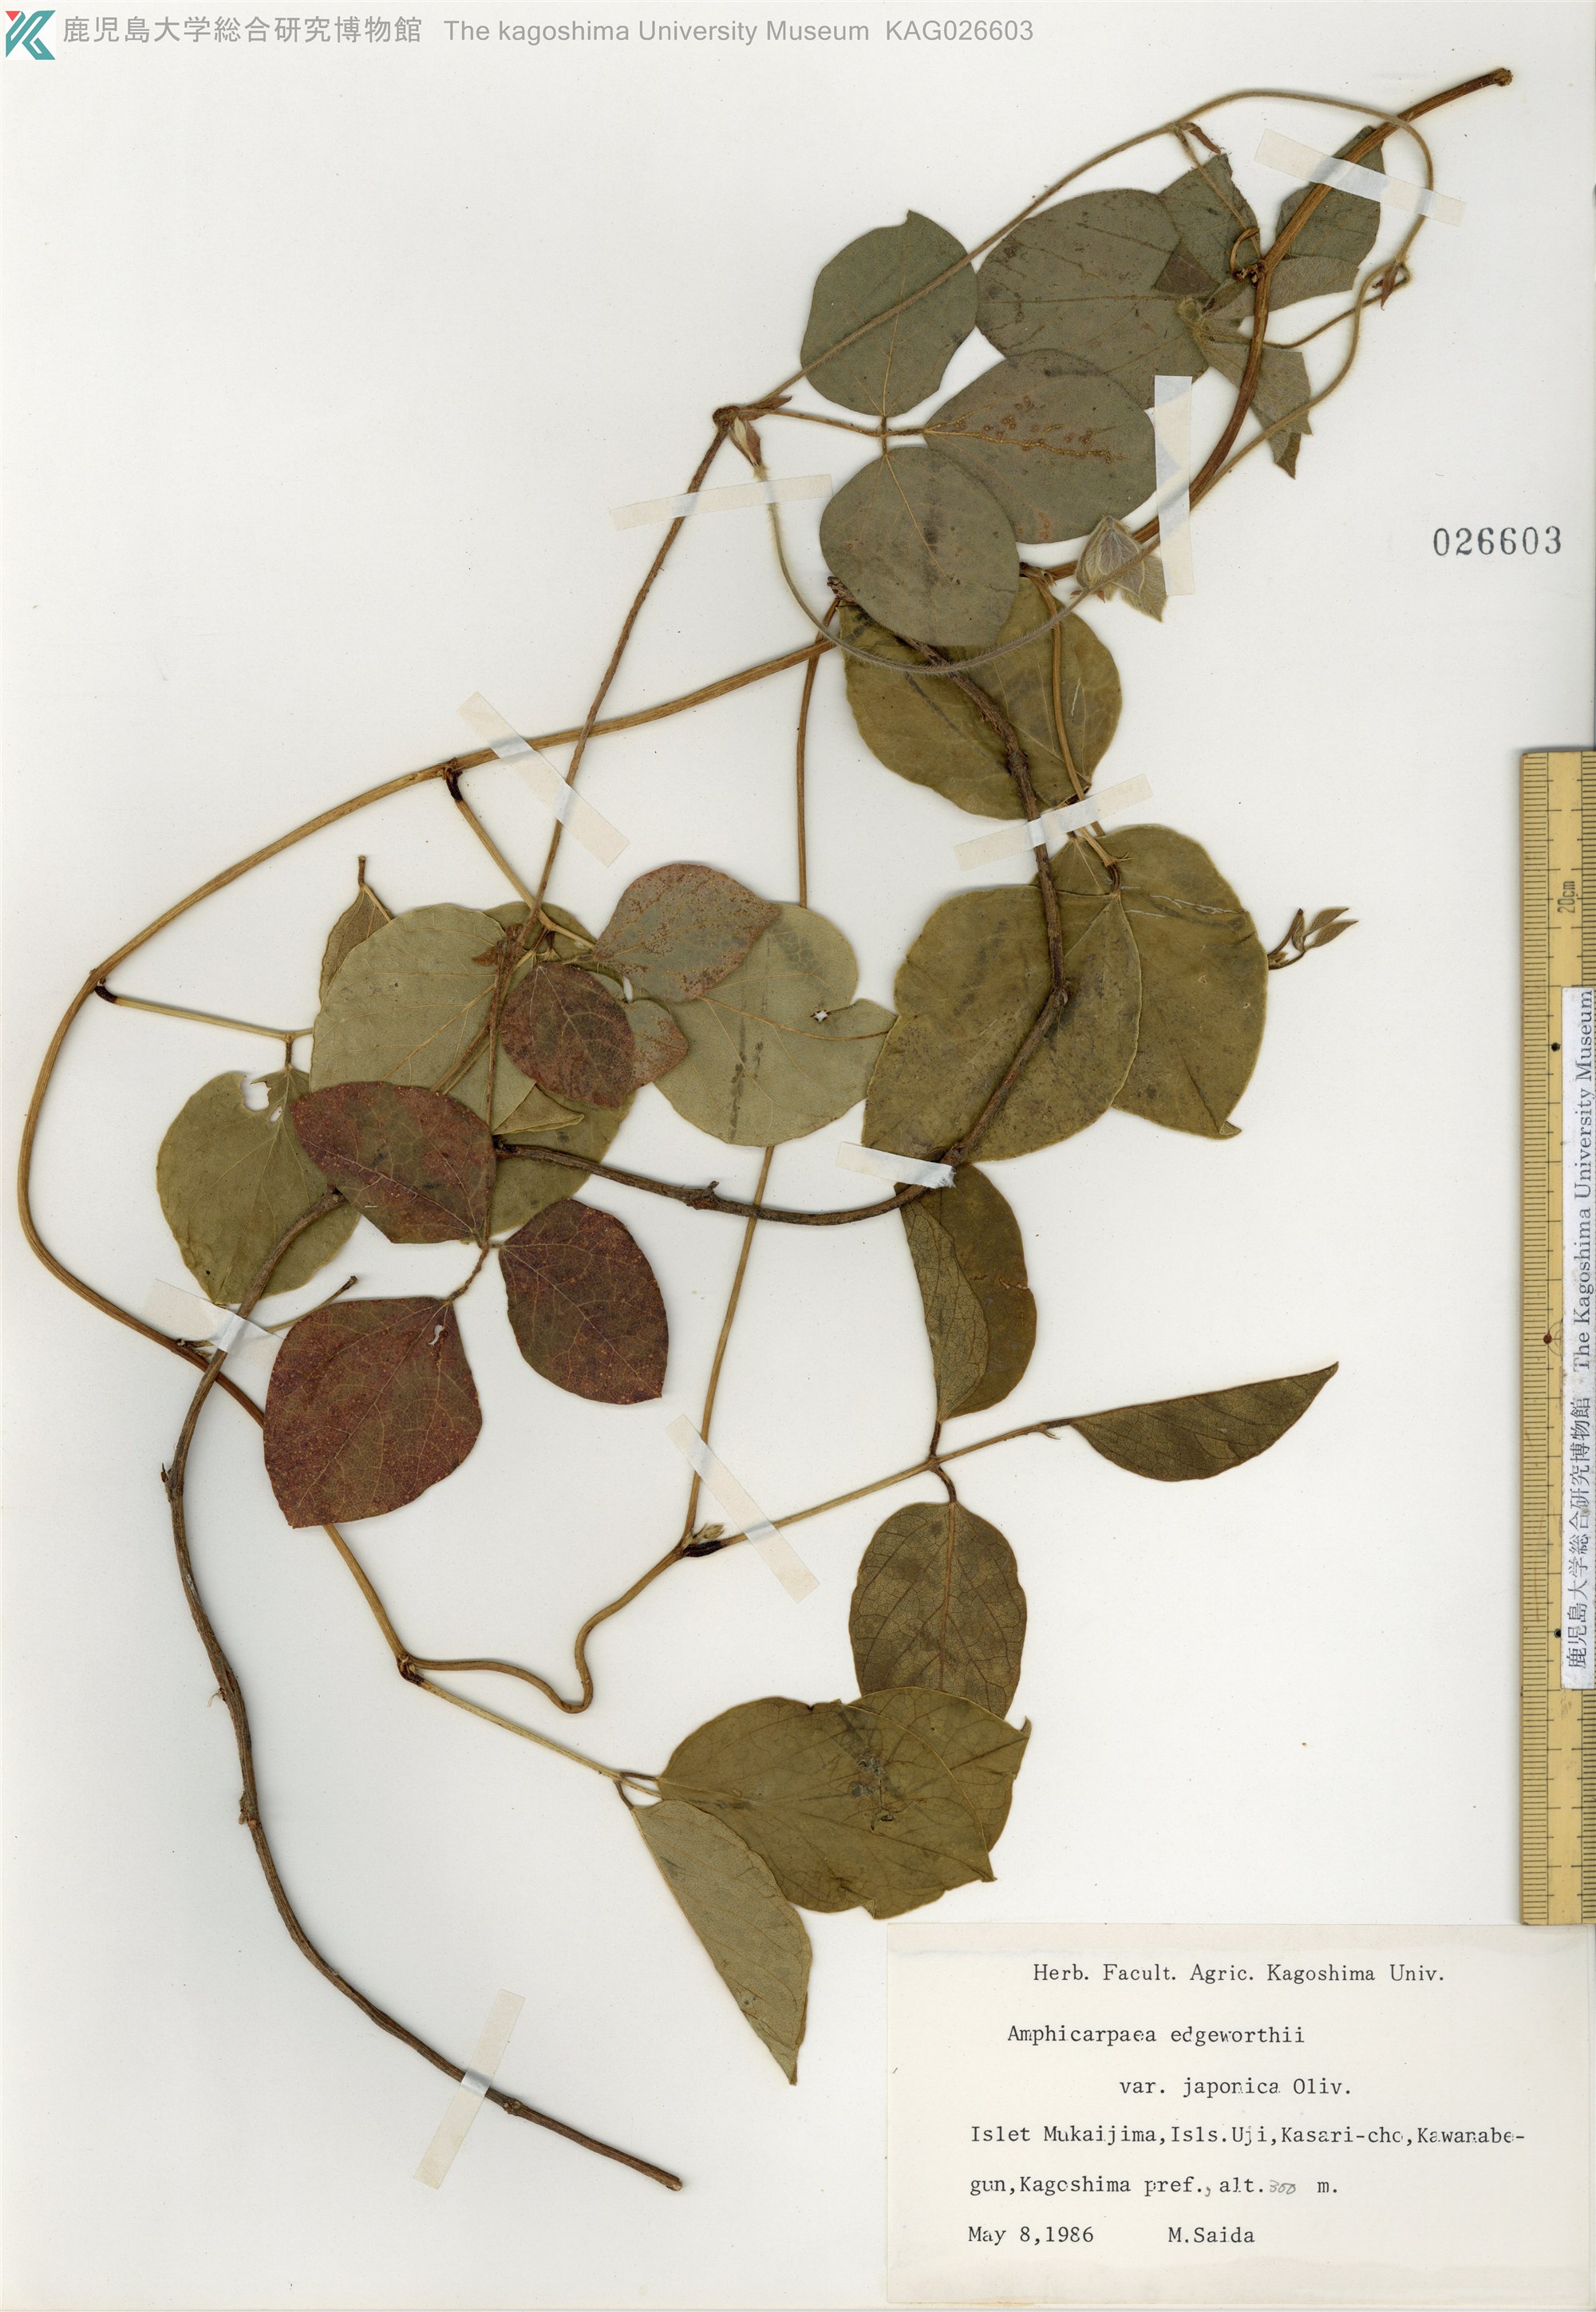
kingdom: Plantae
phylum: Tracheophyta
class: Magnoliopsida
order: Fabales
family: Fabaceae
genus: Amphicarpaea
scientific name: Amphicarpaea edgeworthii
